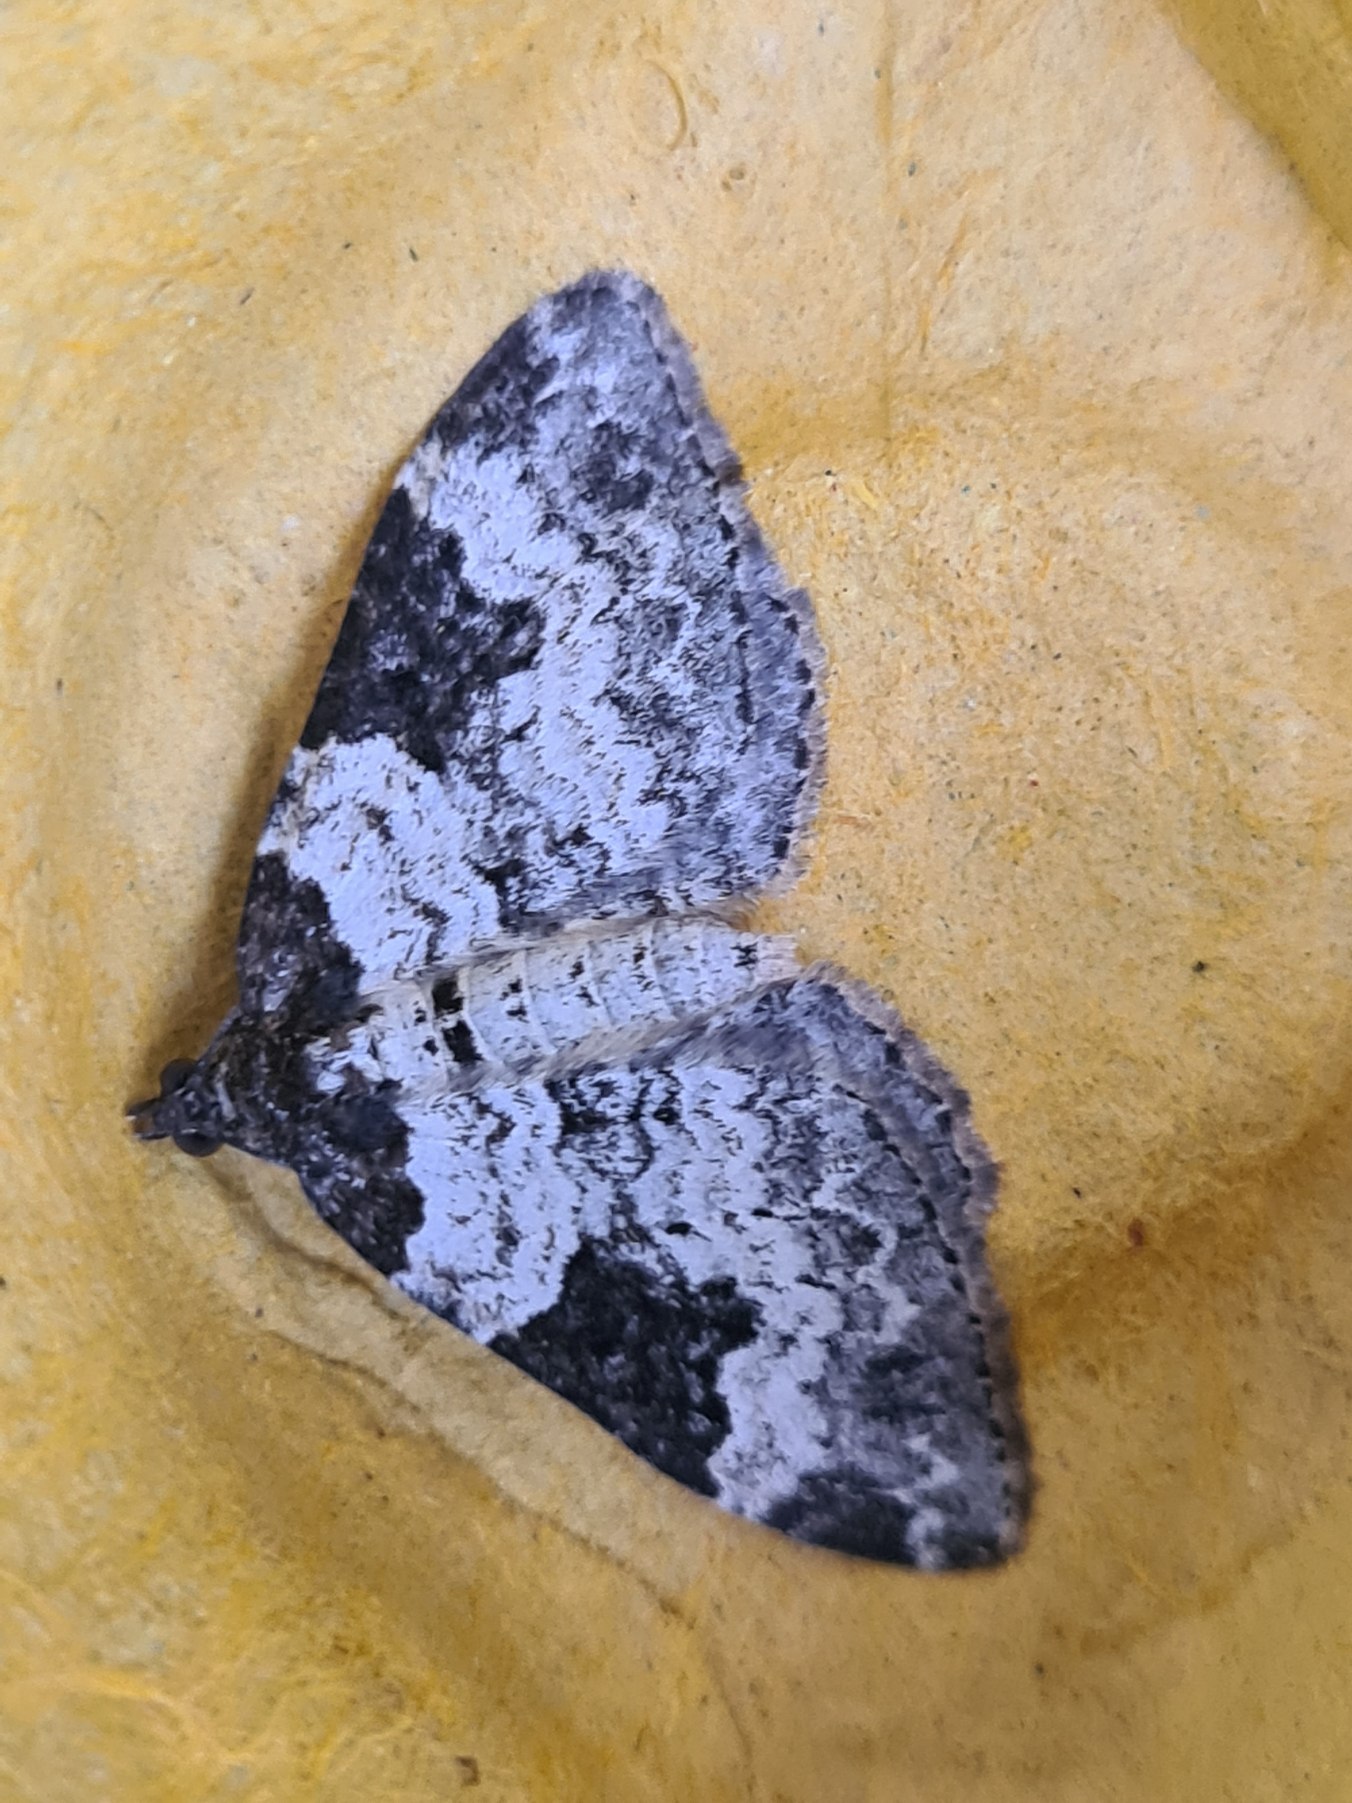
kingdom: Animalia
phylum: Arthropoda
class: Insecta
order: Lepidoptera
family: Geometridae
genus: Xanthorhoe
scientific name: Xanthorhoe fluctuata
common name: Sortbæltet bladmåler
